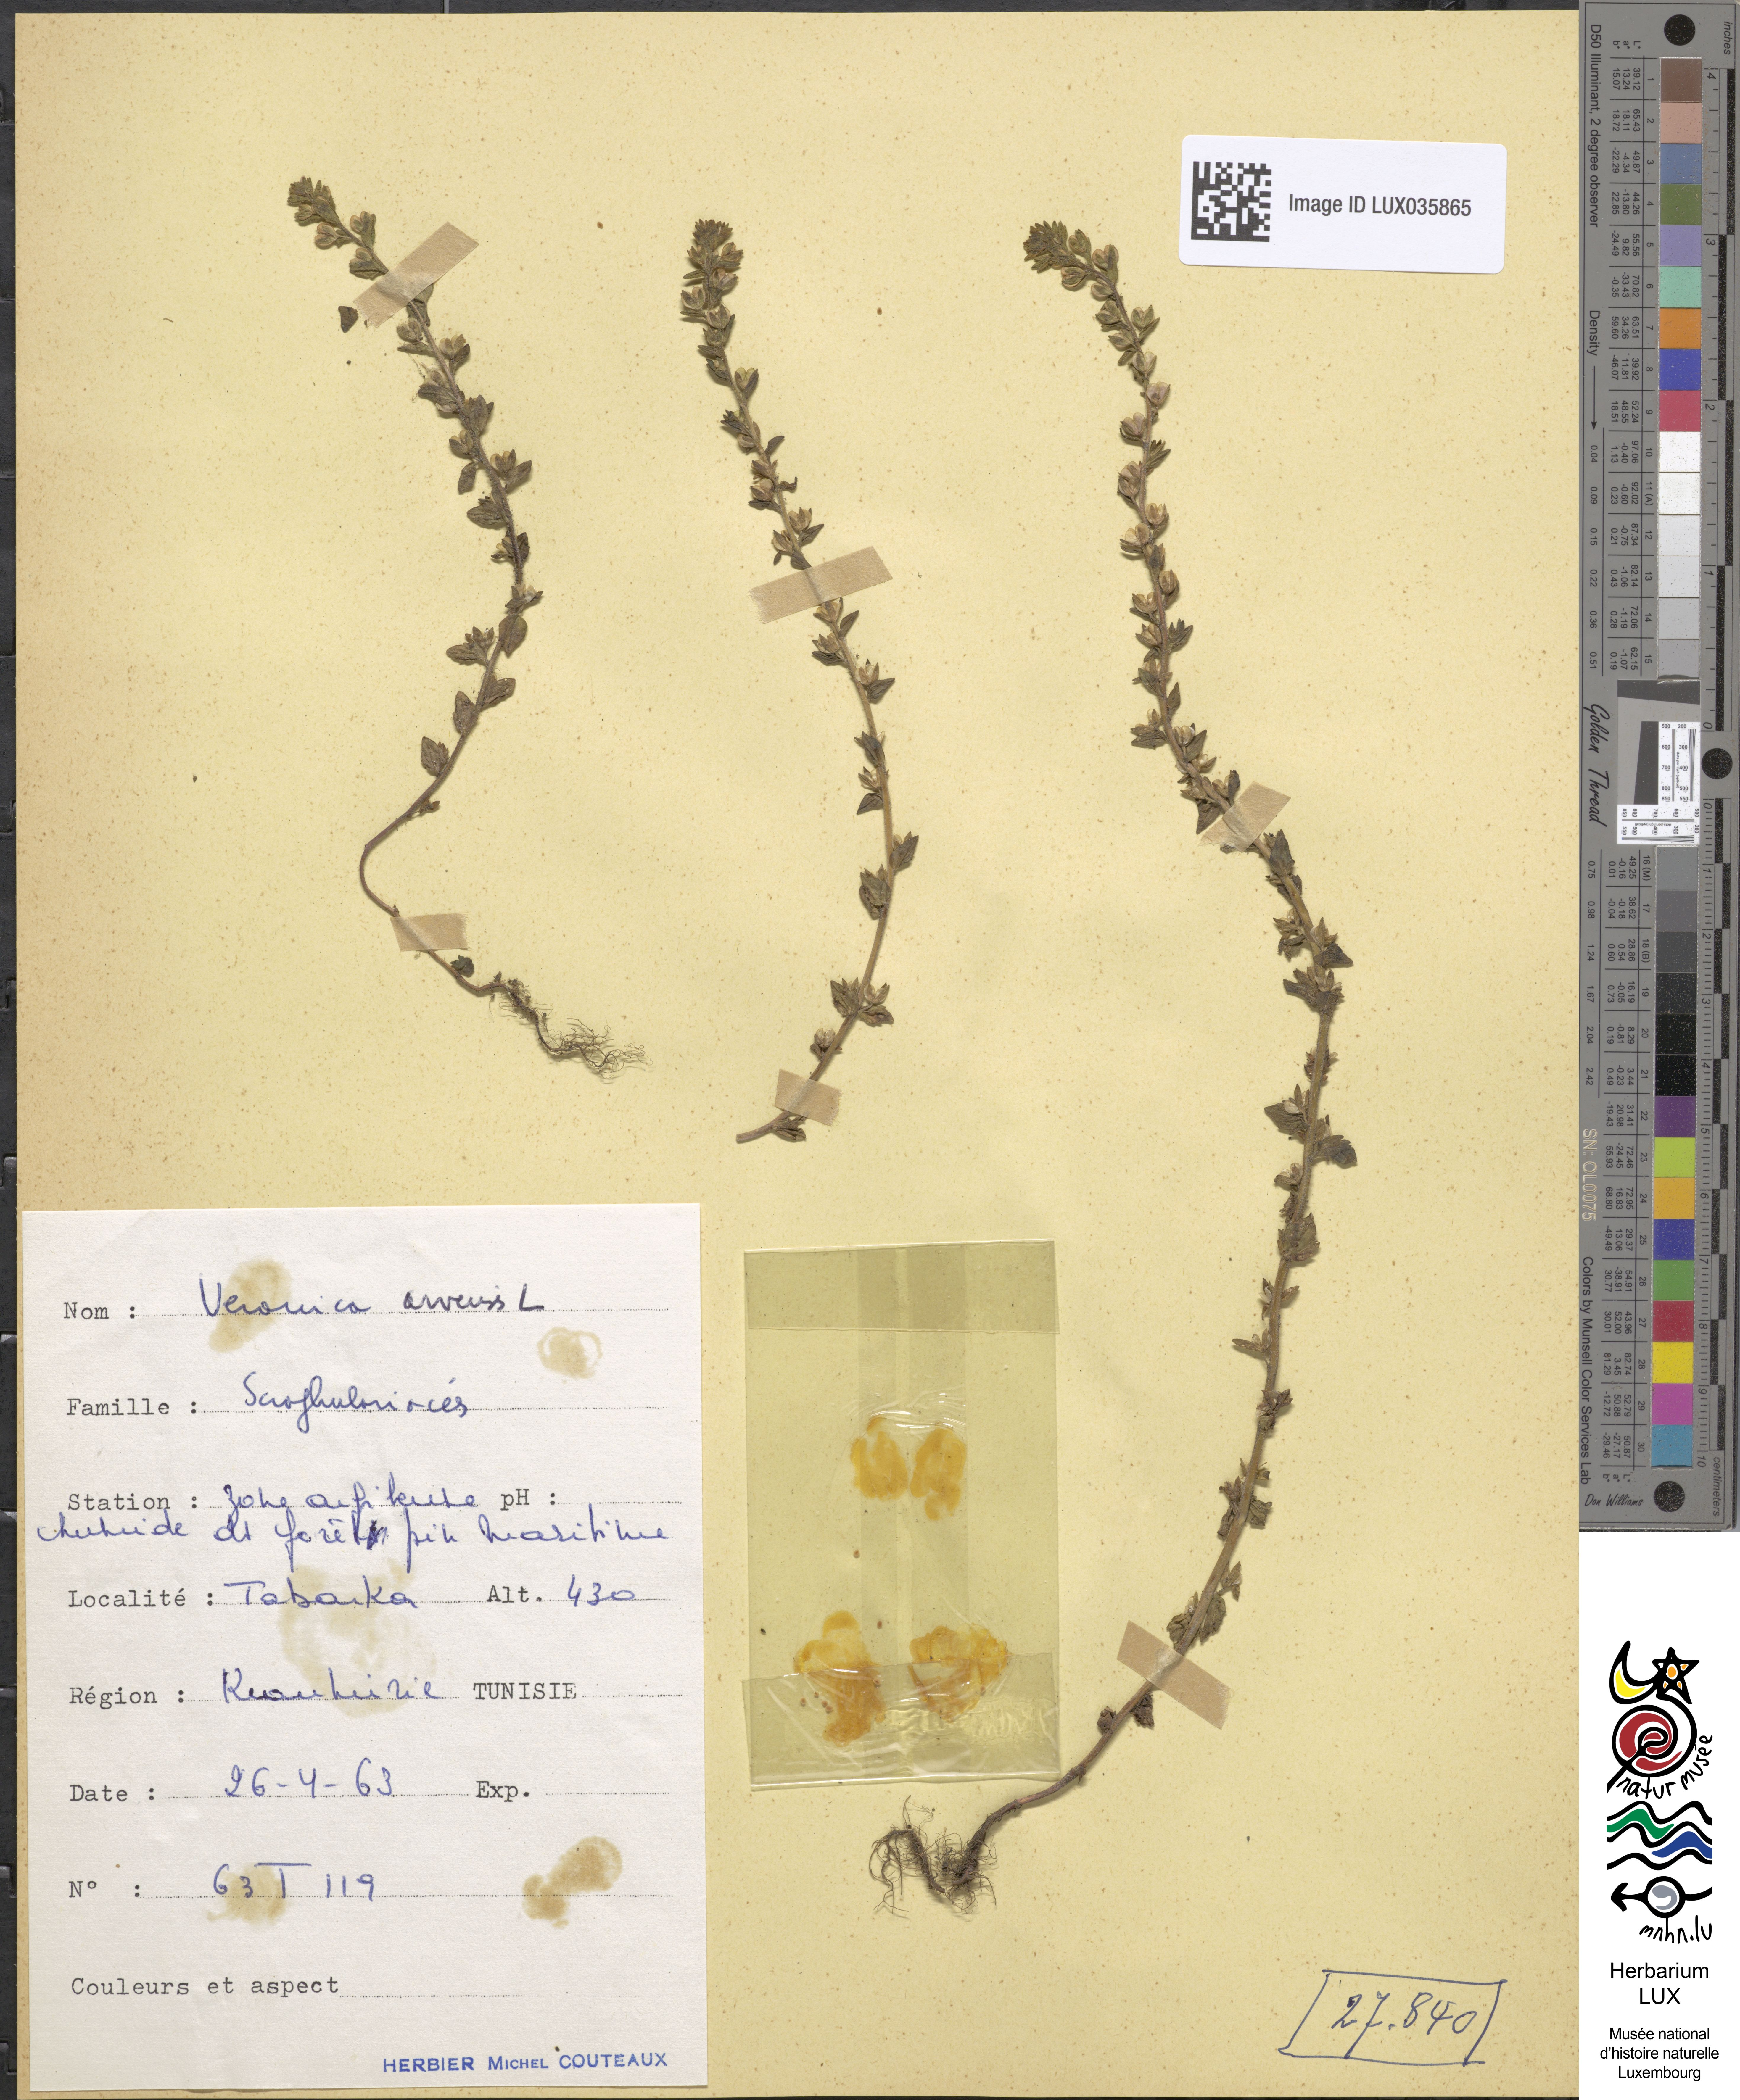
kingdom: Plantae
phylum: Tracheophyta
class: Magnoliopsida
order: Lamiales
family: Plantaginaceae
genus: Veronica
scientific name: Veronica arvensis
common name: Corn speedwell
